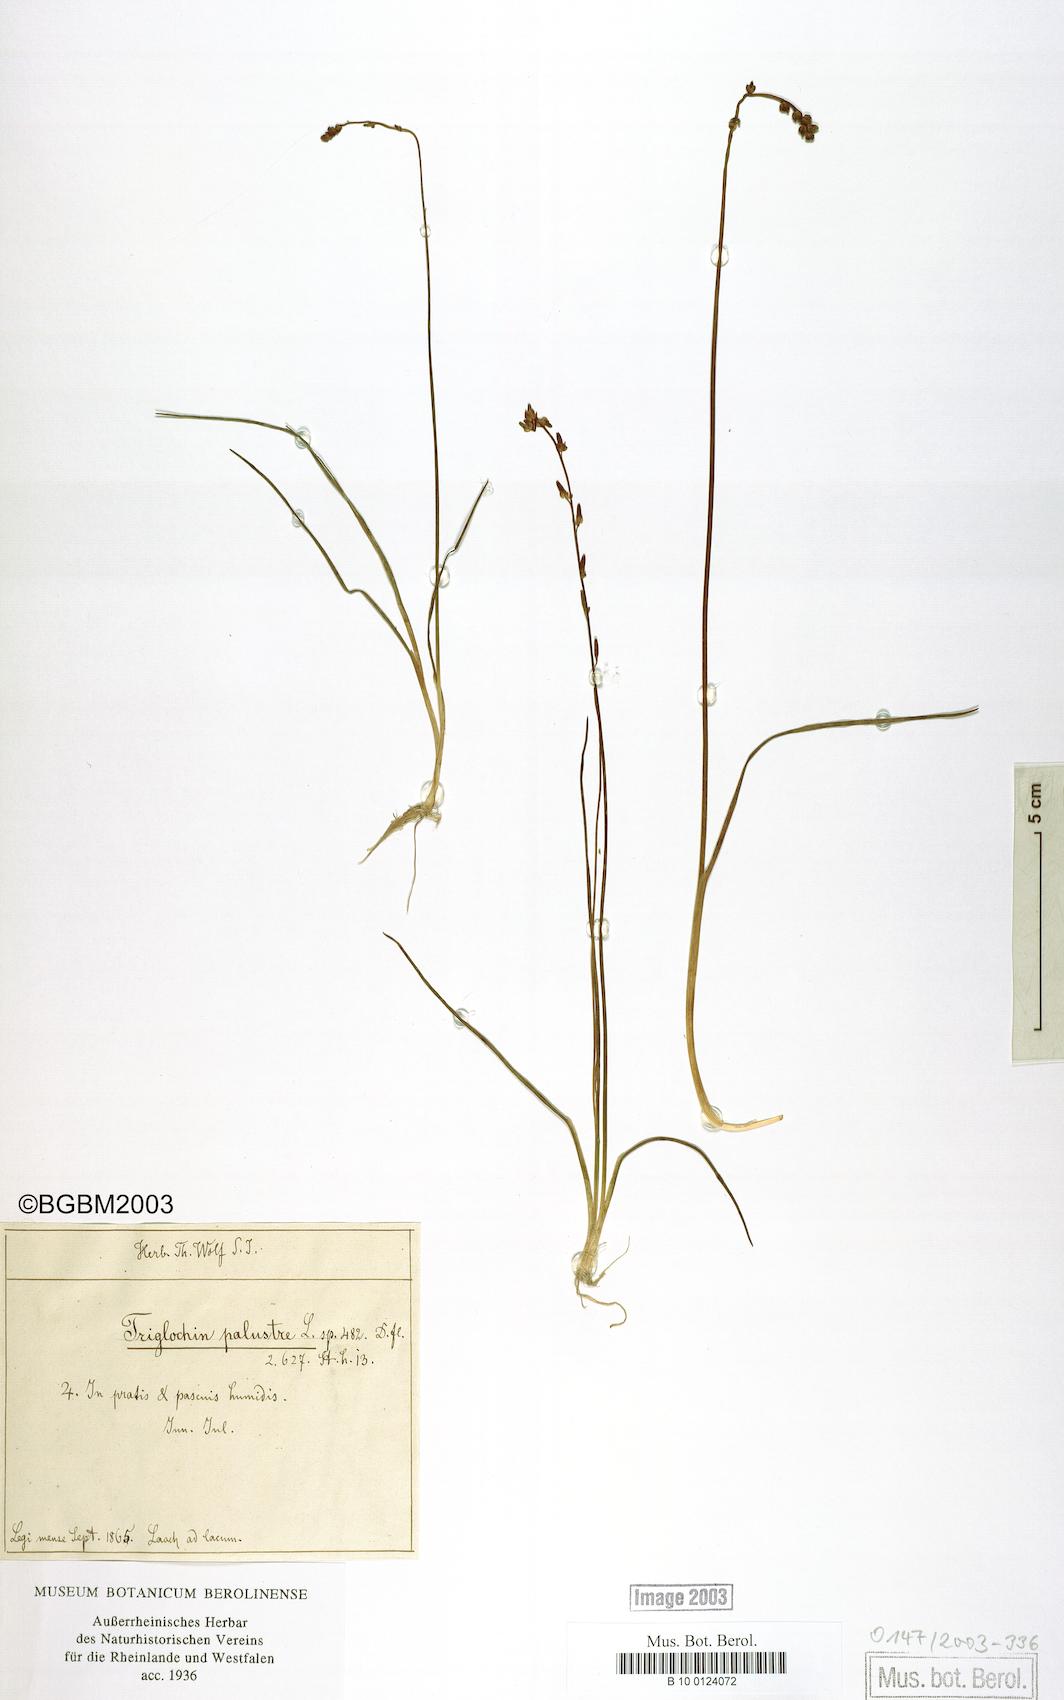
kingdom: Plantae
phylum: Tracheophyta
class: Liliopsida
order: Alismatales
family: Juncaginaceae
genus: Triglochin
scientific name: Triglochin palustris
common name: Marsh arrowgrass
